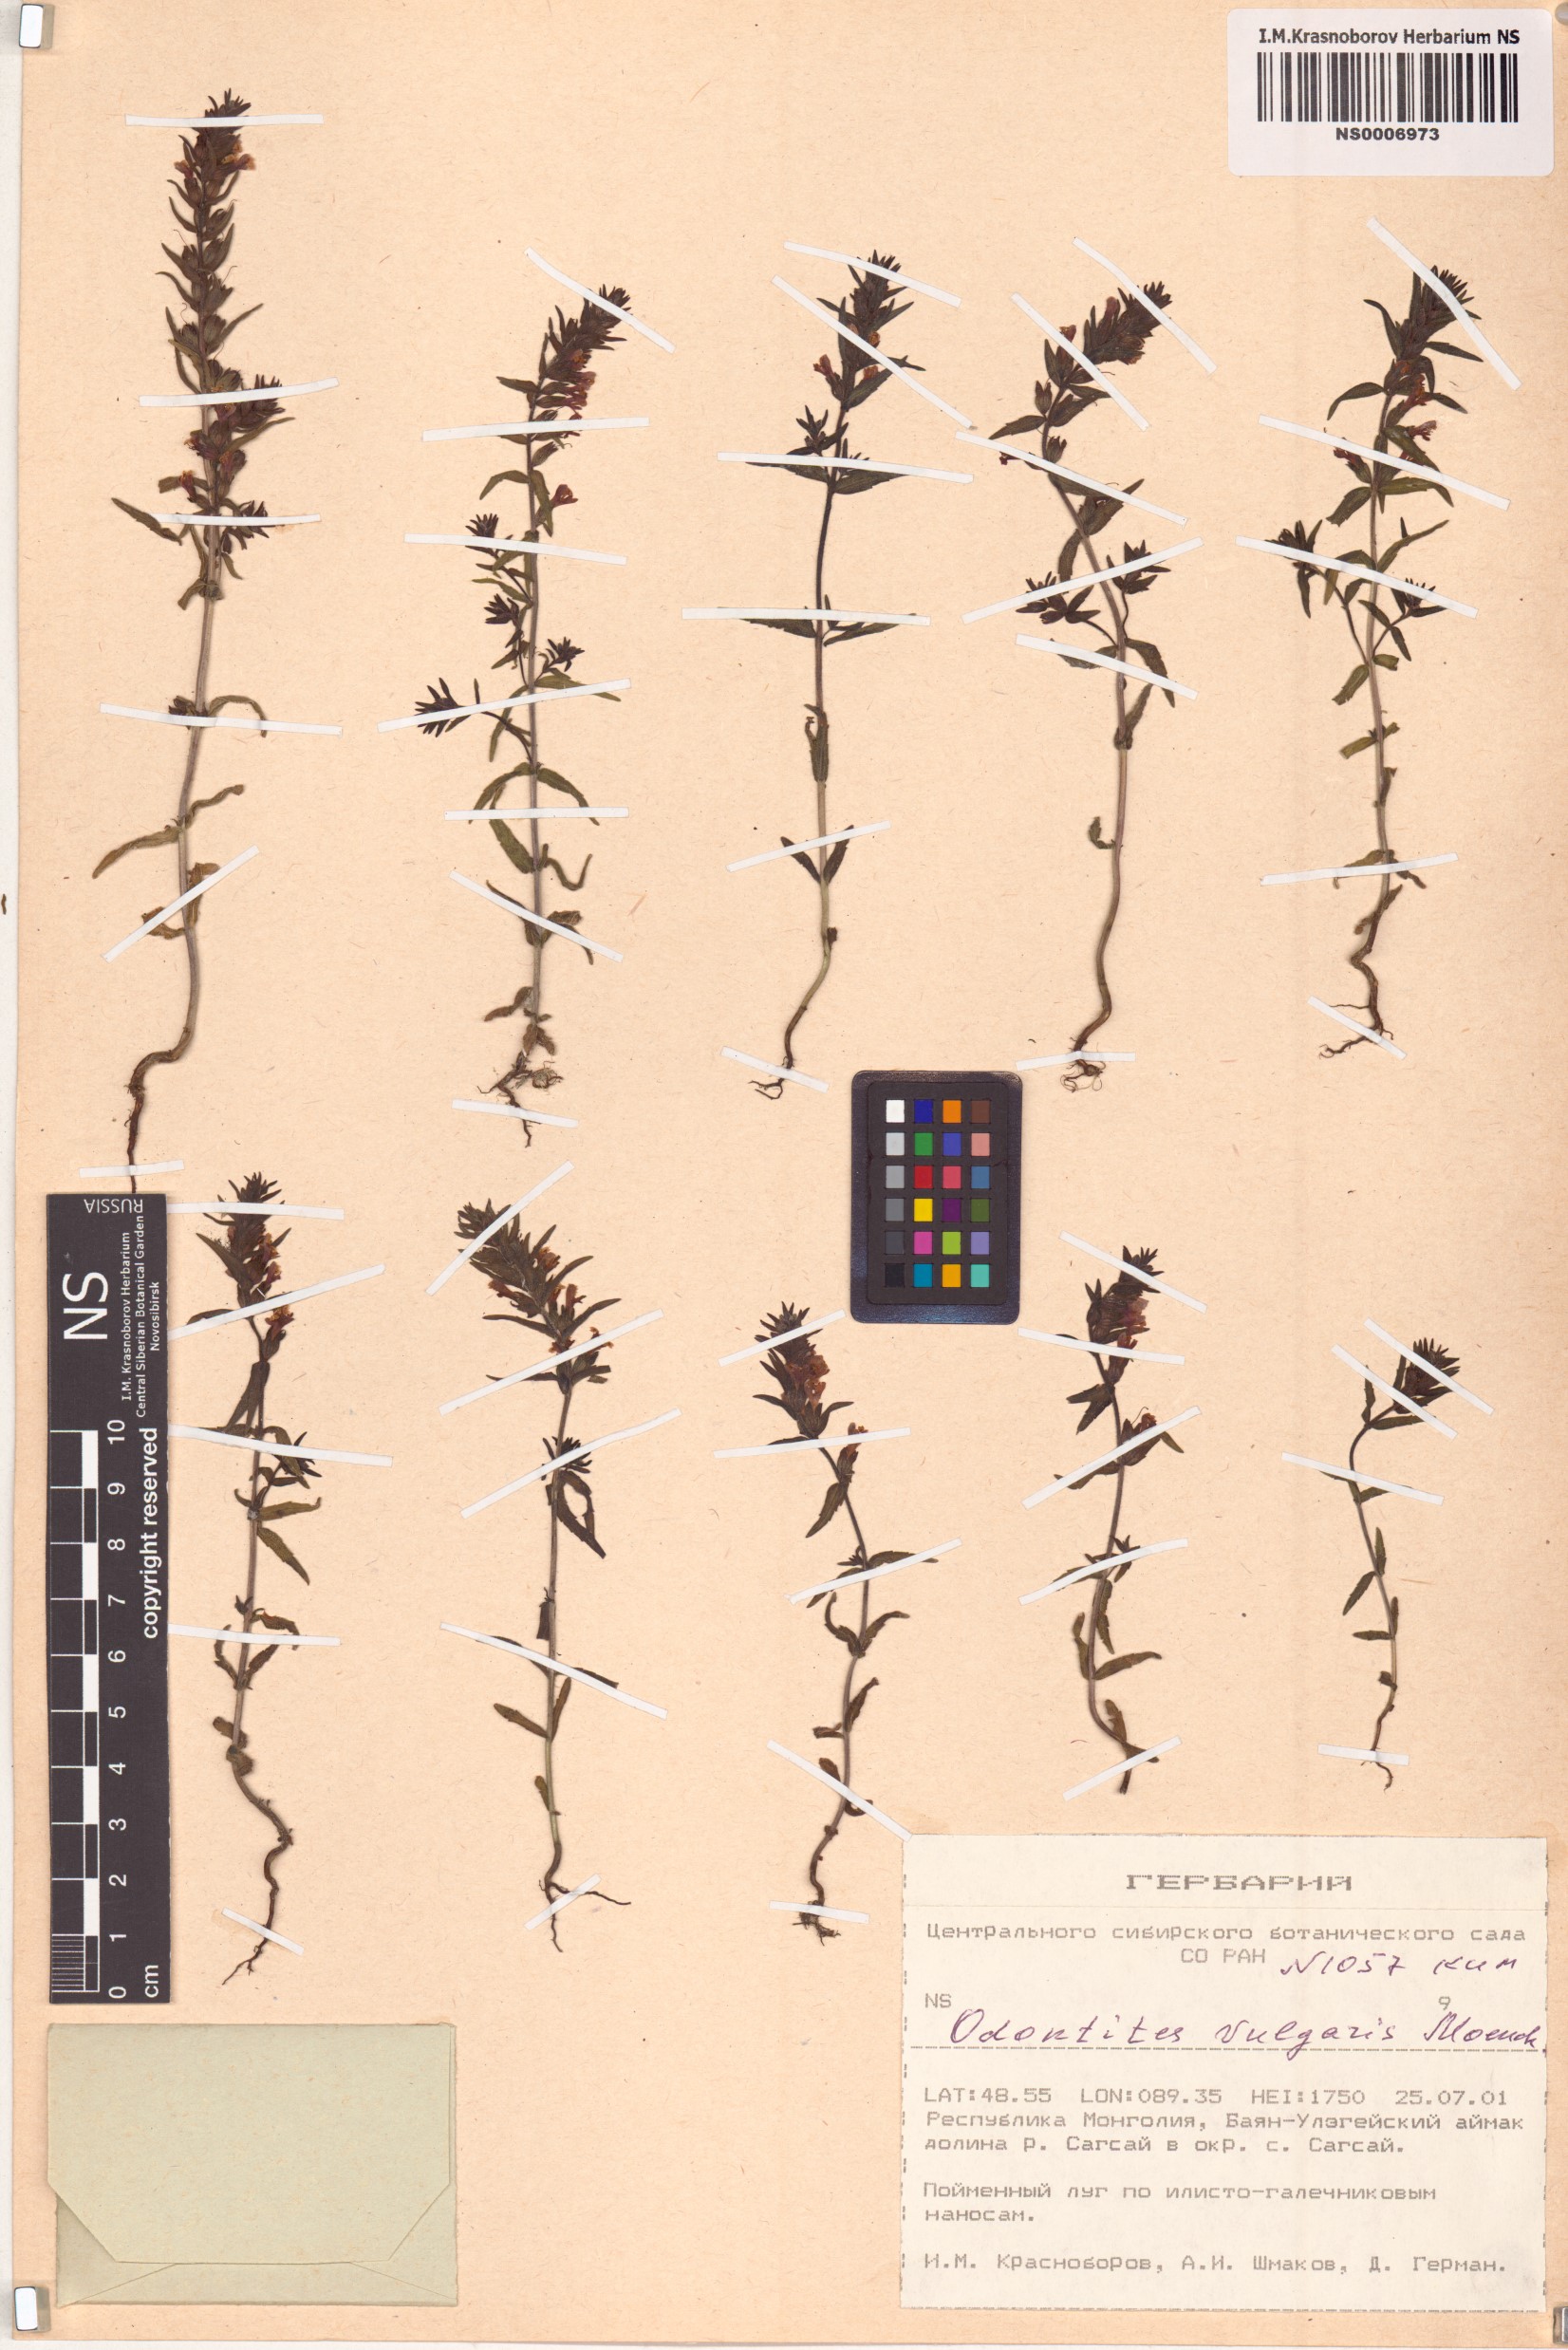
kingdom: Plantae
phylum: Tracheophyta
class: Magnoliopsida
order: Lamiales
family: Orobanchaceae
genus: Odontites
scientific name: Odontites vulgaris
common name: Broomrape
